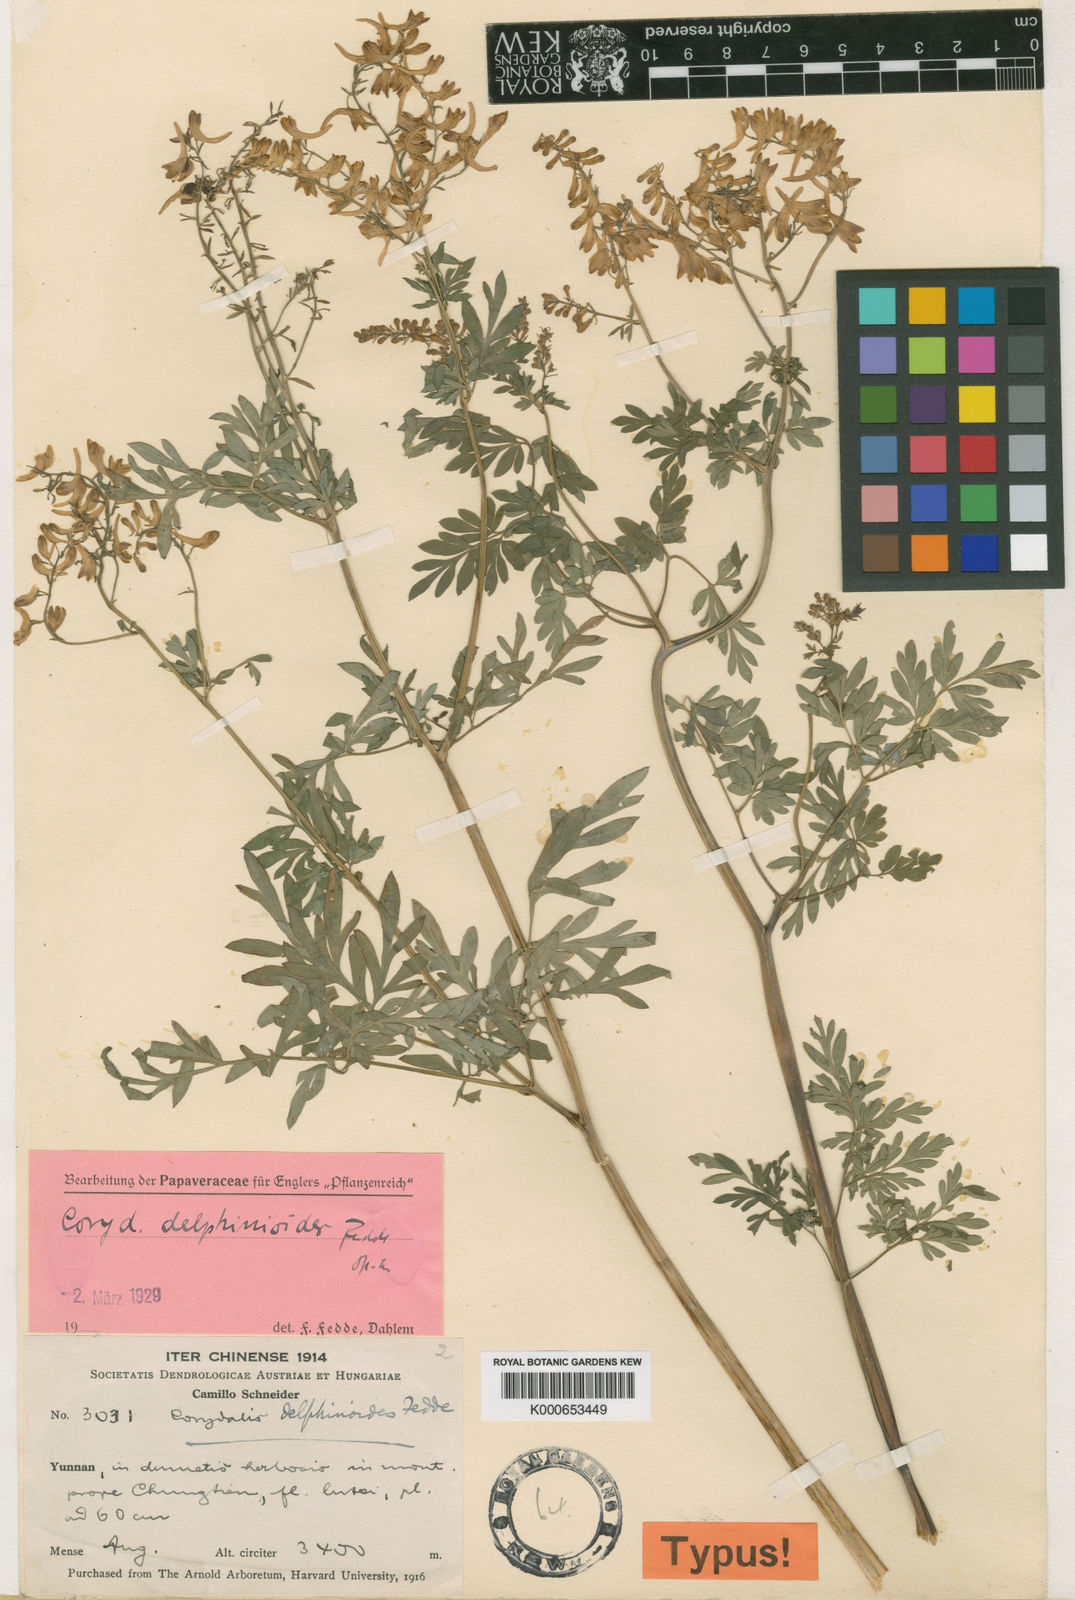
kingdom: Plantae
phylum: Tracheophyta
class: Magnoliopsida
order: Ranunculales
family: Papaveraceae
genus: Corydalis
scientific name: Corydalis delphinioides
